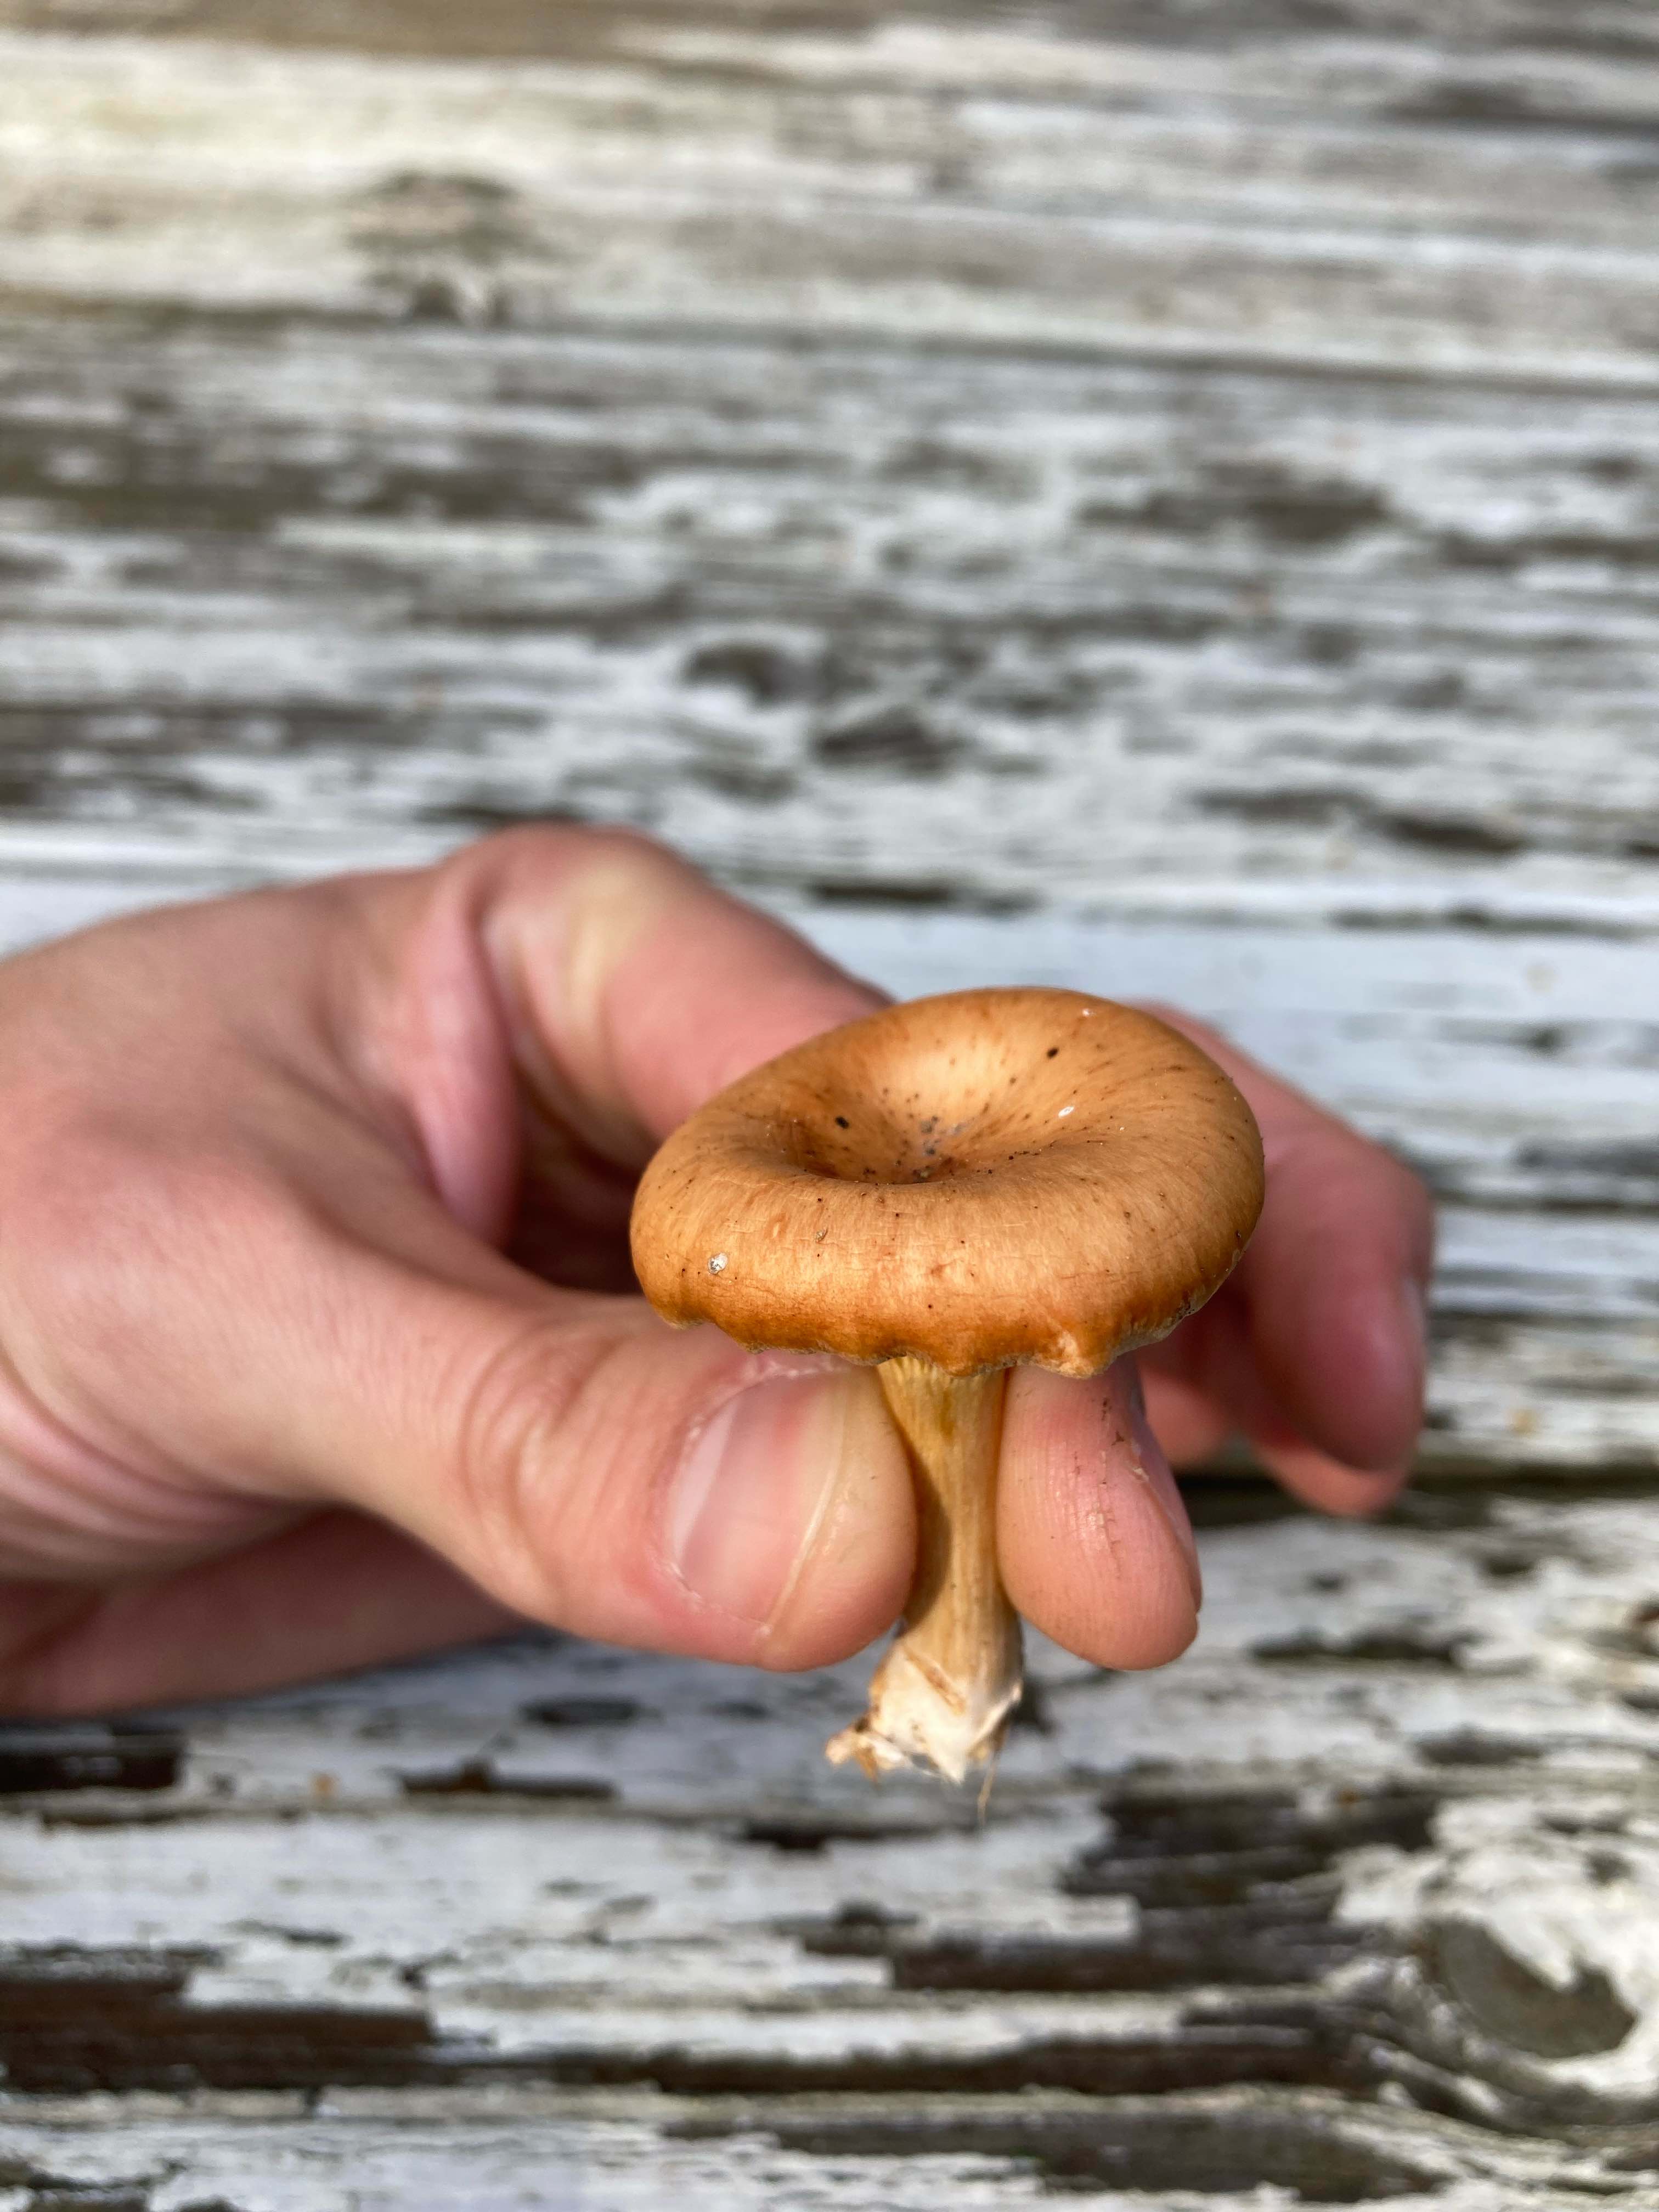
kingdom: Fungi
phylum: Basidiomycota
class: Agaricomycetes
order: Agaricales
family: Tricholomataceae
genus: Paralepista
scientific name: Paralepista flaccida
